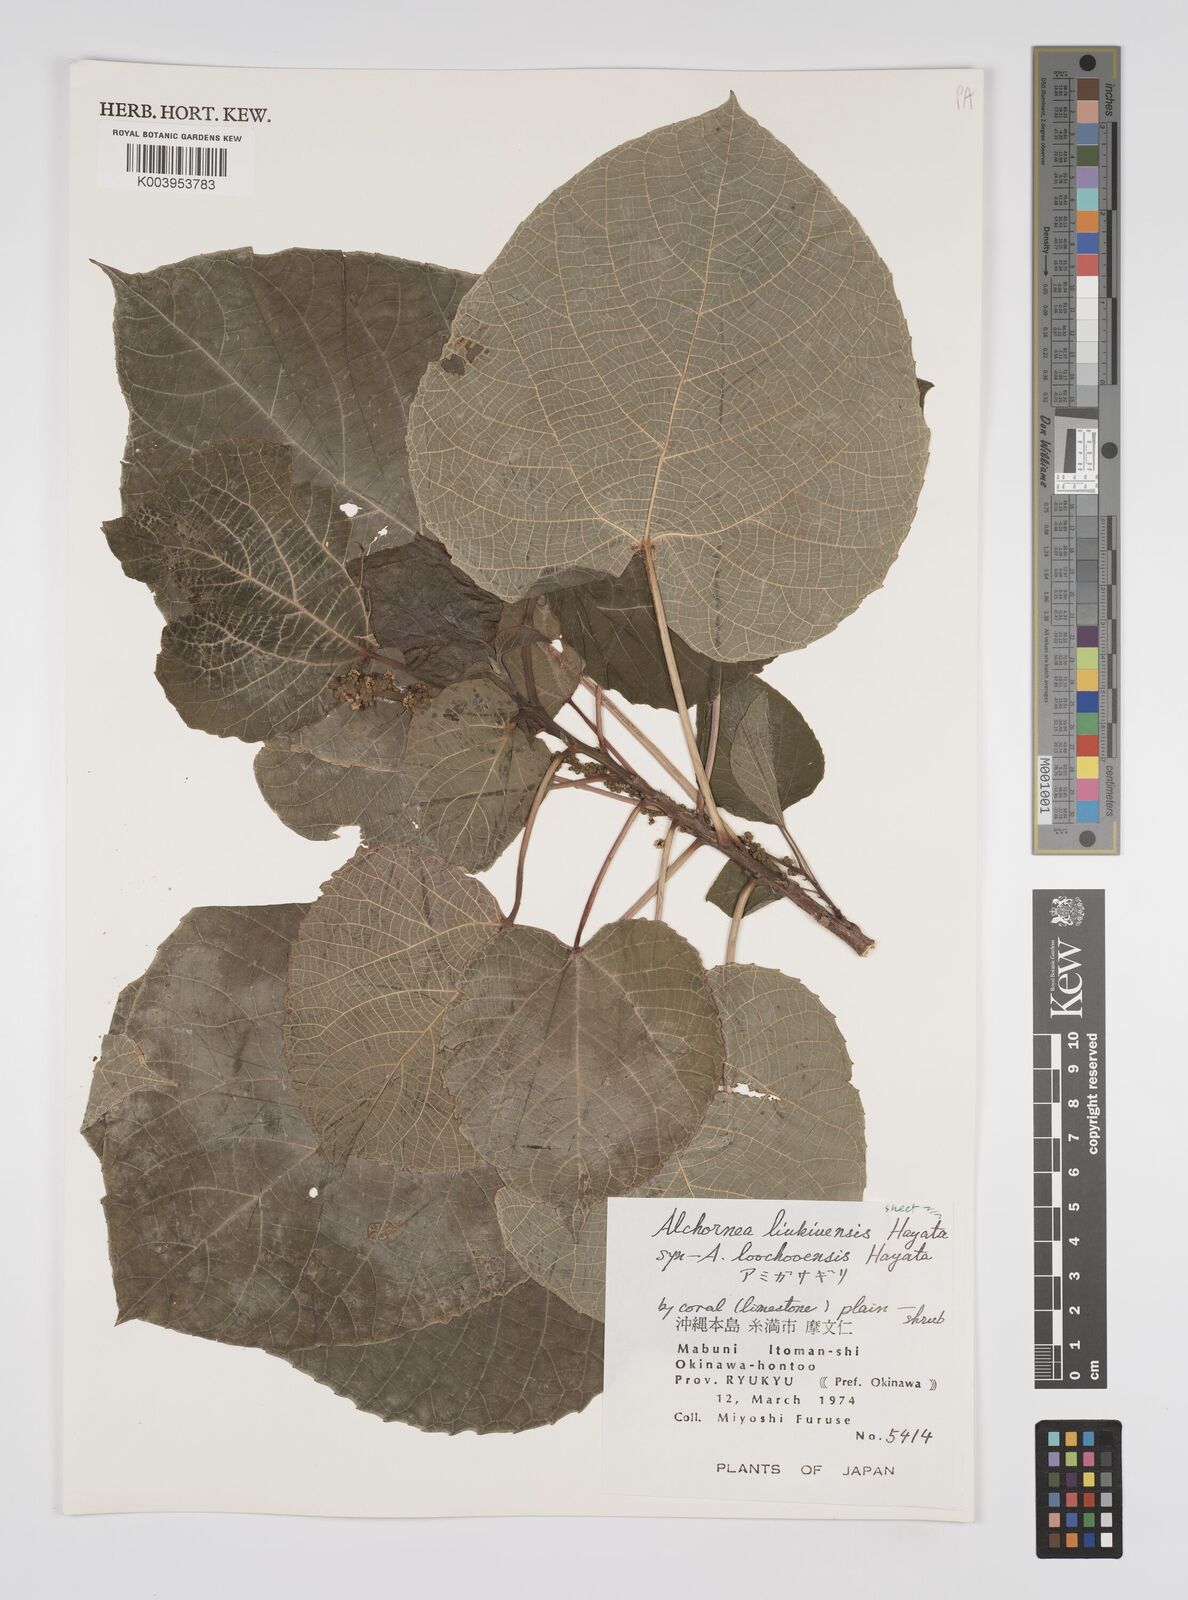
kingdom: Plantae
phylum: Tracheophyta
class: Magnoliopsida
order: Malpighiales
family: Euphorbiaceae
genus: Alchornea
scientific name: Alchornea liukiuensis
